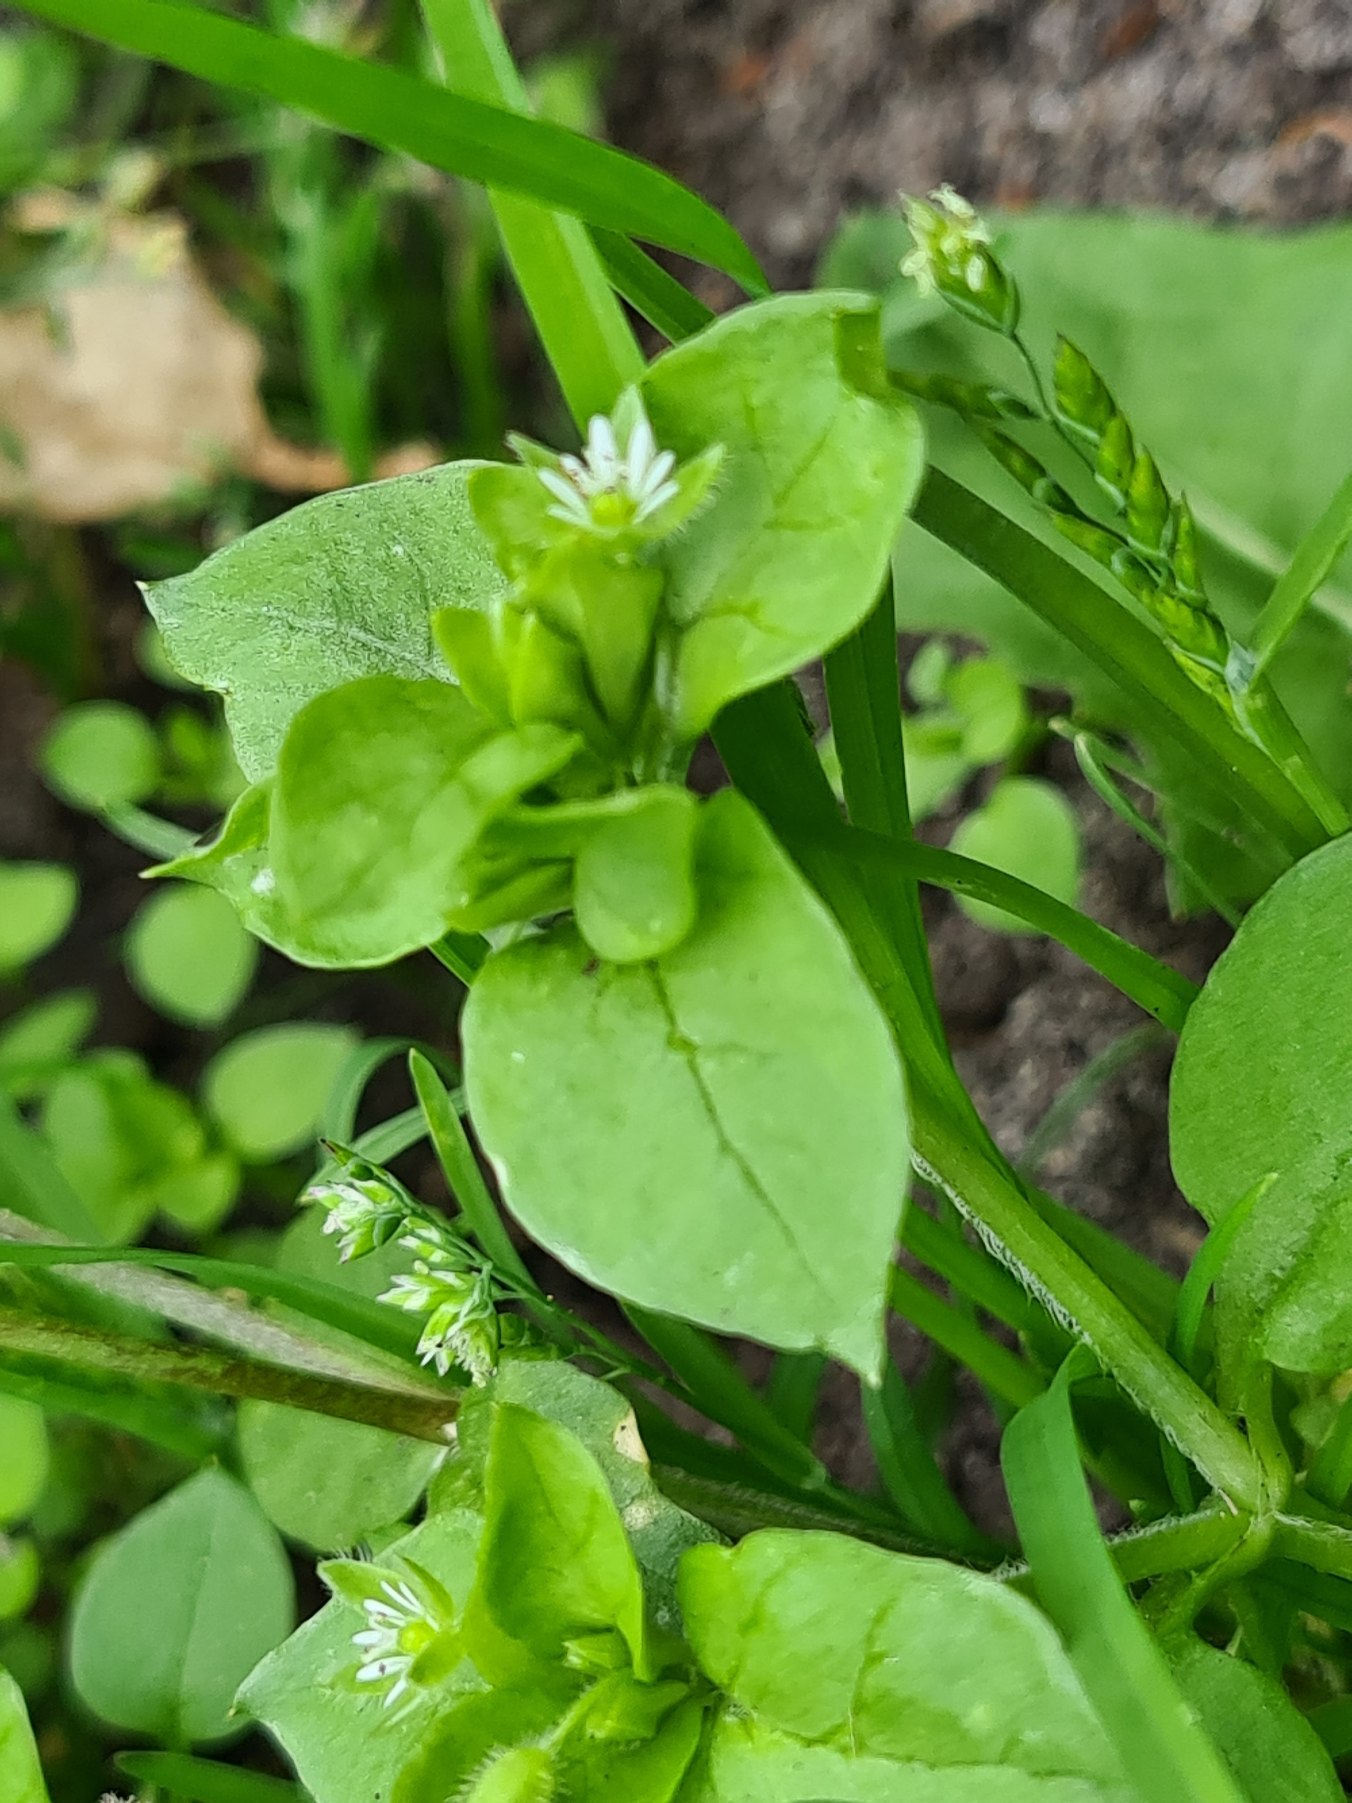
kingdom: Plantae
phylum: Tracheophyta
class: Magnoliopsida
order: Caryophyllales
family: Caryophyllaceae
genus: Stellaria
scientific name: Stellaria media
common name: Almindelig fuglegræs
